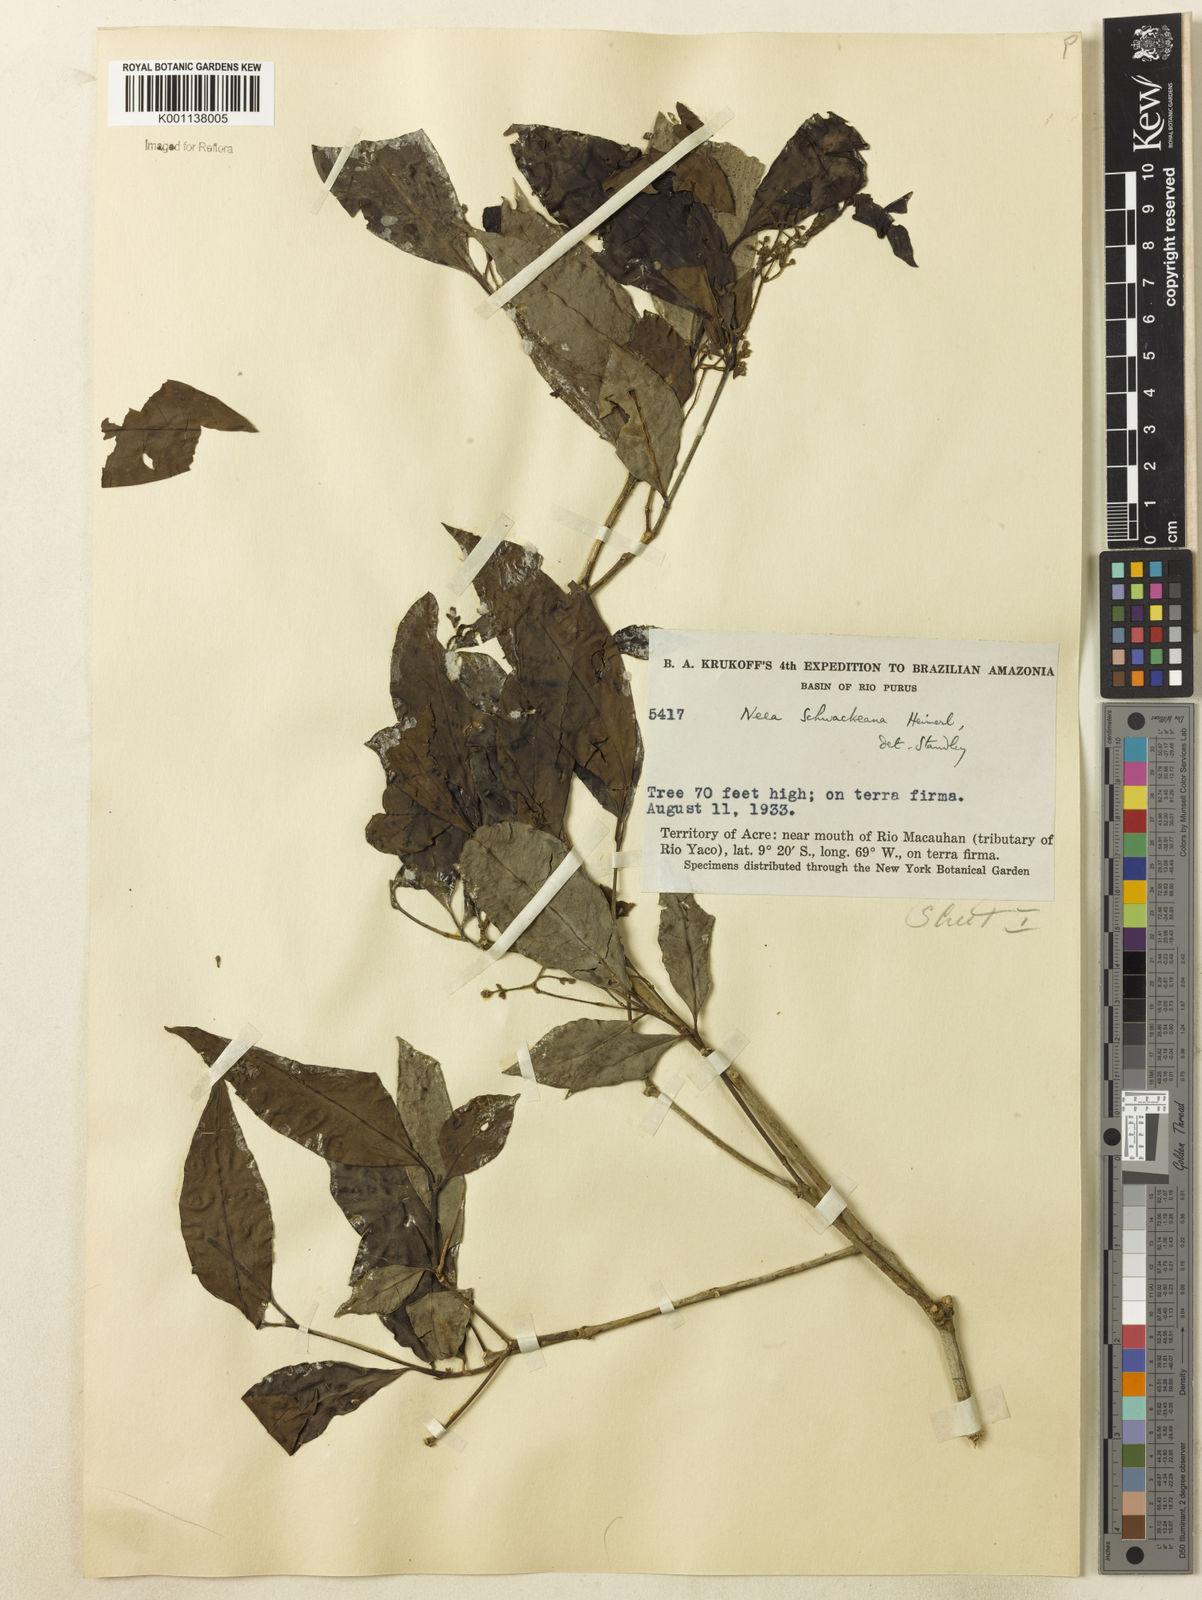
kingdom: Plantae
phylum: Tracheophyta
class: Magnoliopsida
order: Caryophyllales
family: Nyctaginaceae
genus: Neea
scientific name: Neea schwackeana
